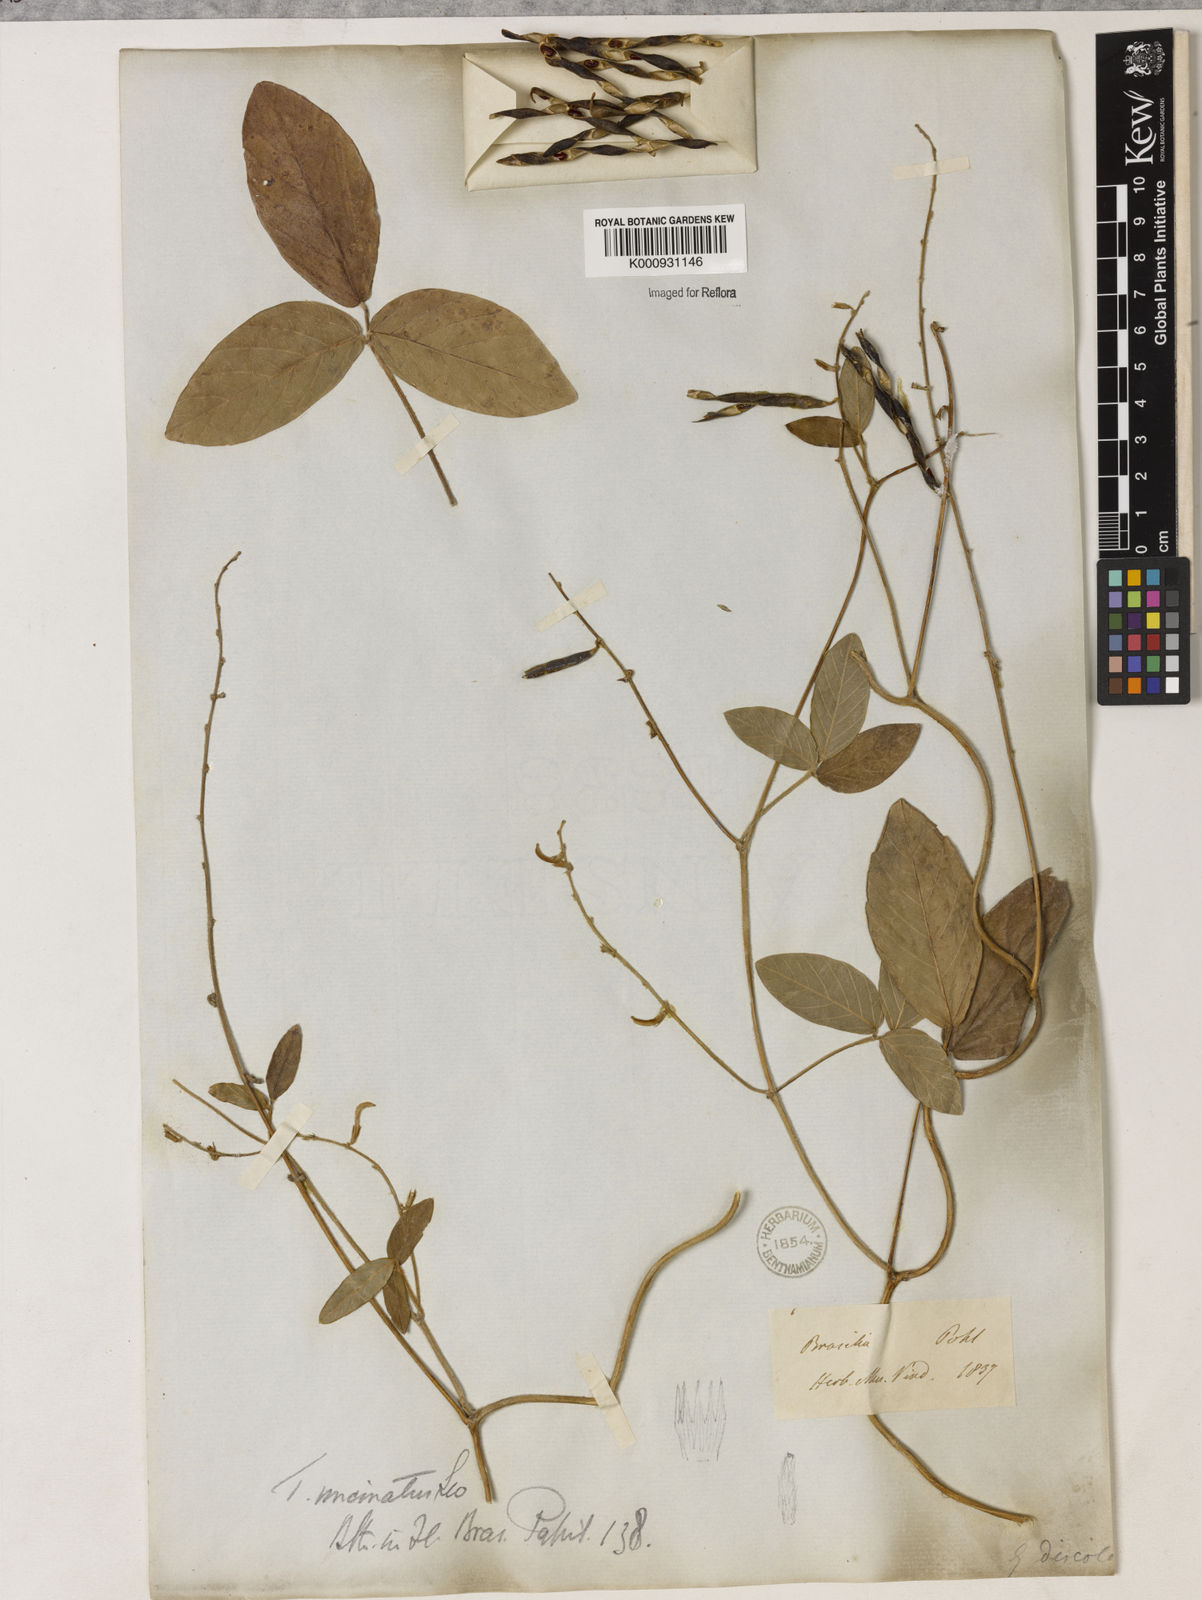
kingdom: Plantae
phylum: Tracheophyta
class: Magnoliopsida
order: Fabales
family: Fabaceae
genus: Teramnus
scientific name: Teramnus uncinatus
